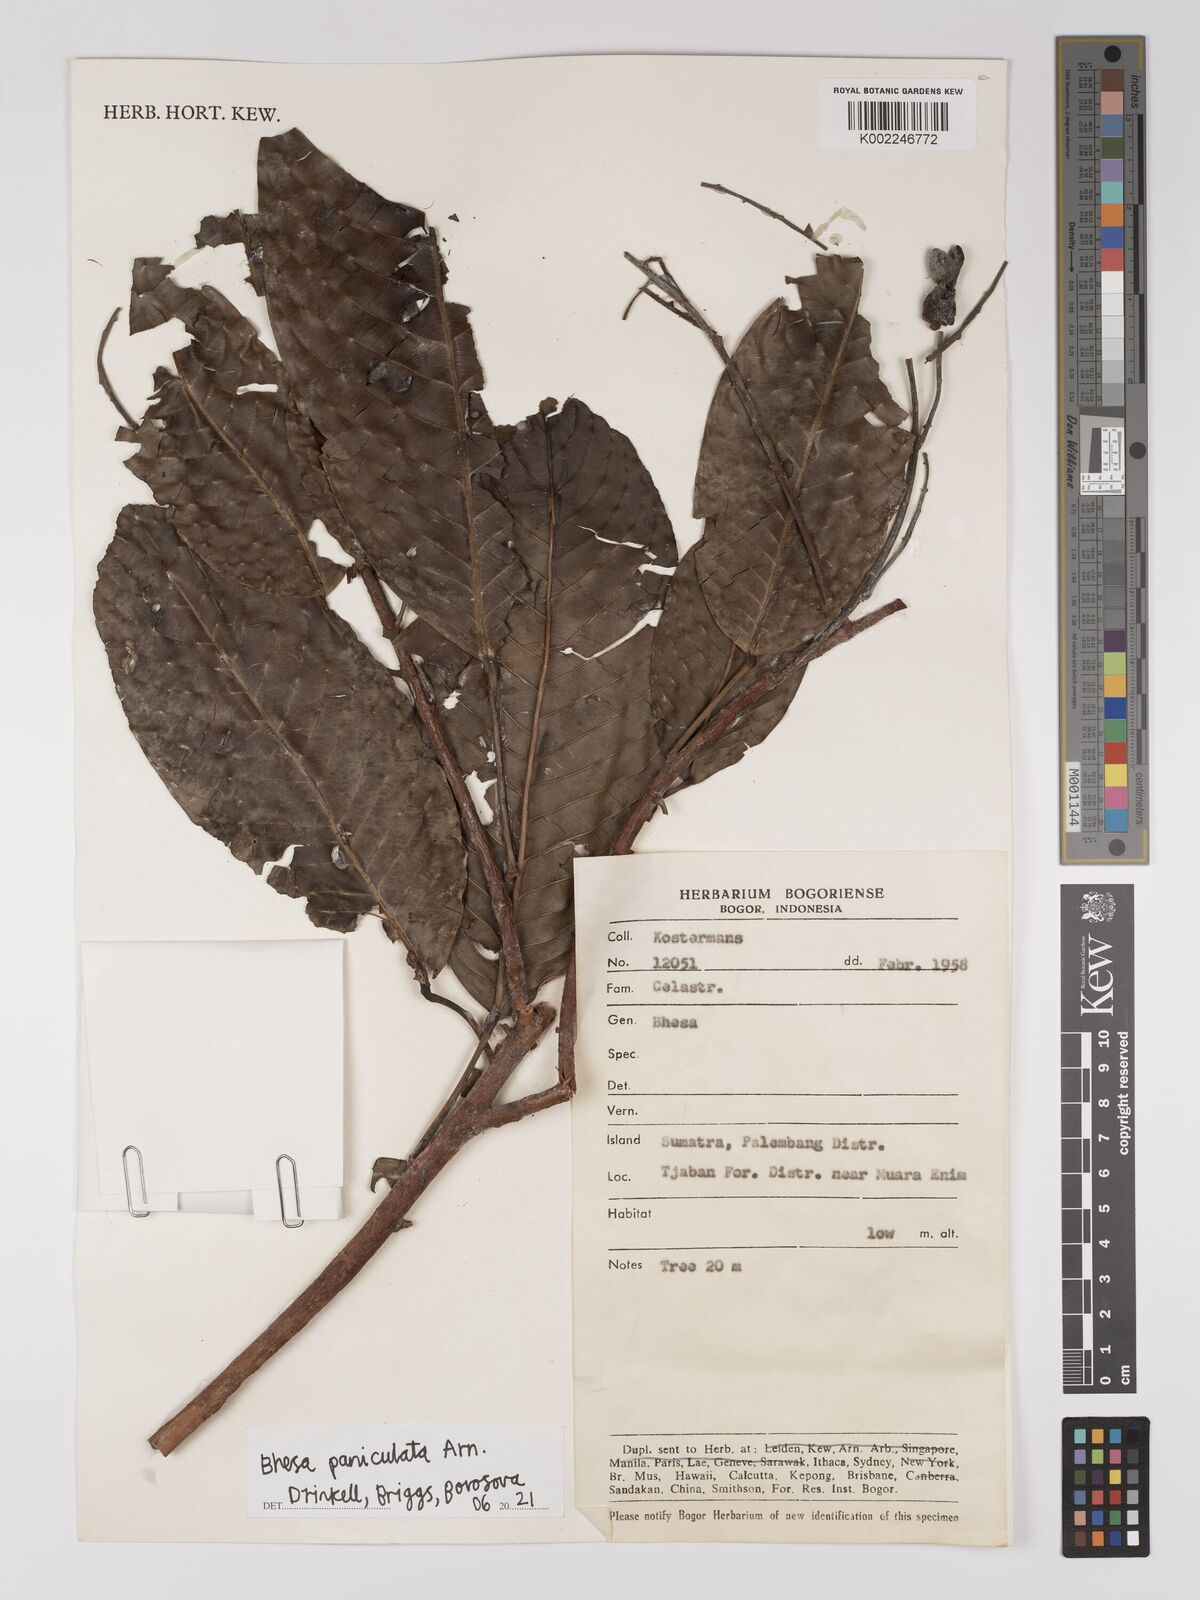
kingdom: Plantae
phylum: Tracheophyta
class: Magnoliopsida
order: Malpighiales
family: Centroplacaceae
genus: Bhesa
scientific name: Bhesa paniculata
